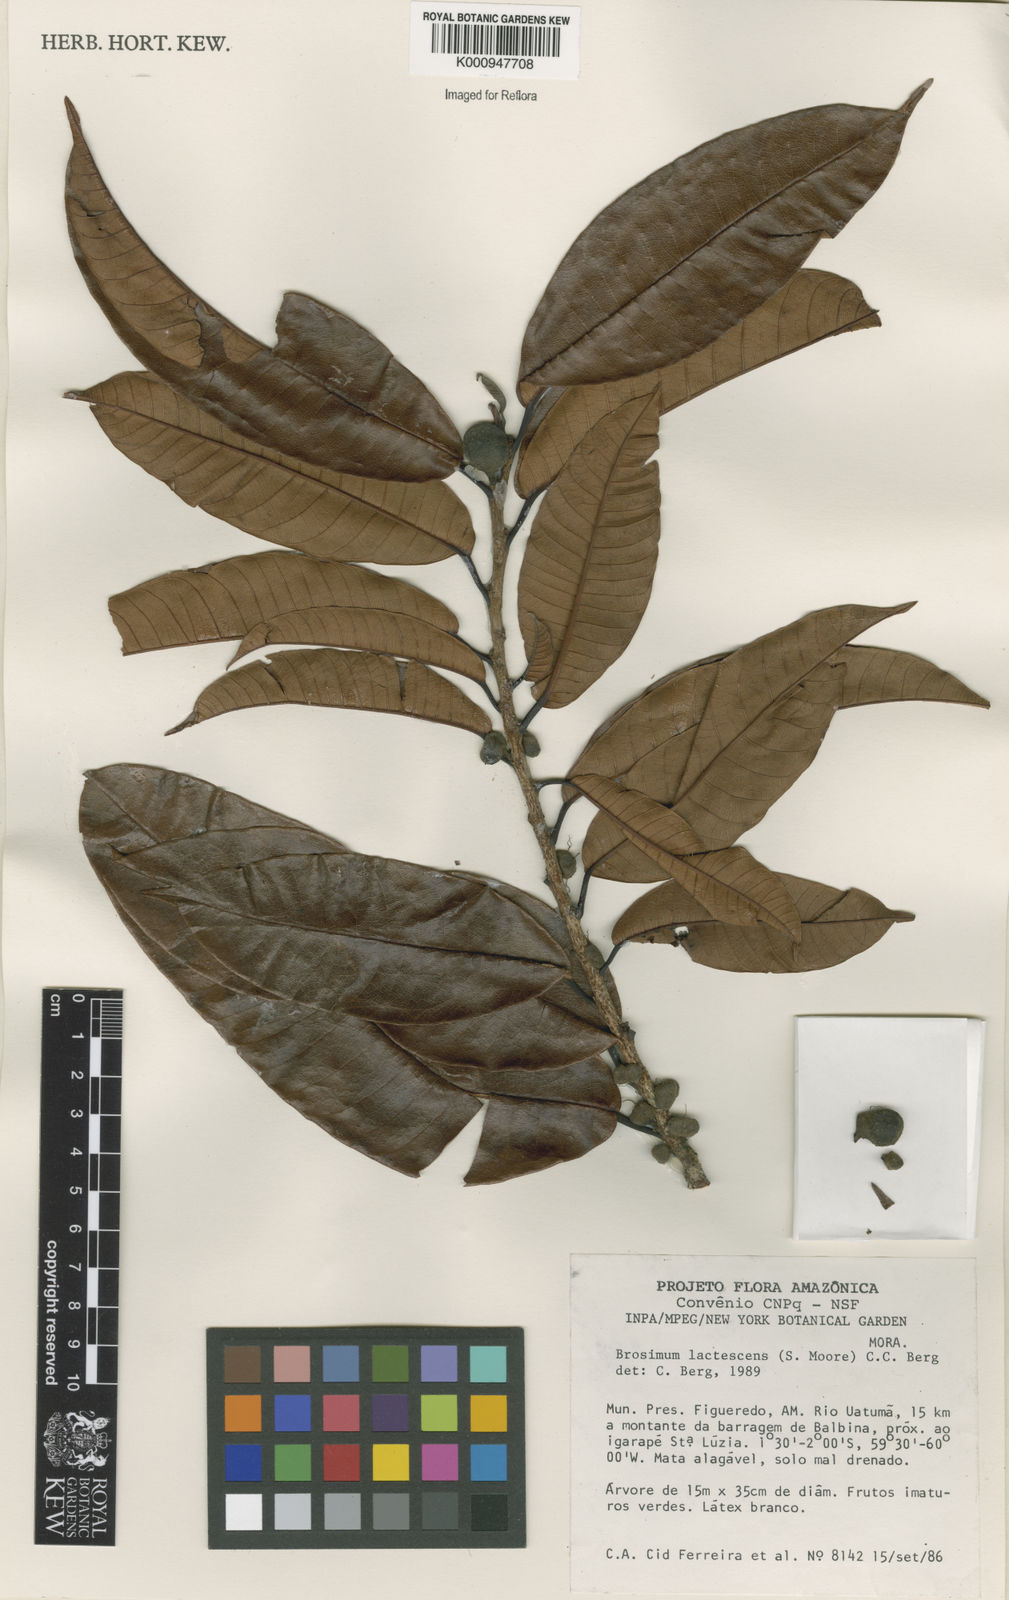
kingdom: Plantae
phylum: Tracheophyta
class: Magnoliopsida
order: Rosales
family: Moraceae
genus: Brosimum
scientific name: Brosimum lactescens
